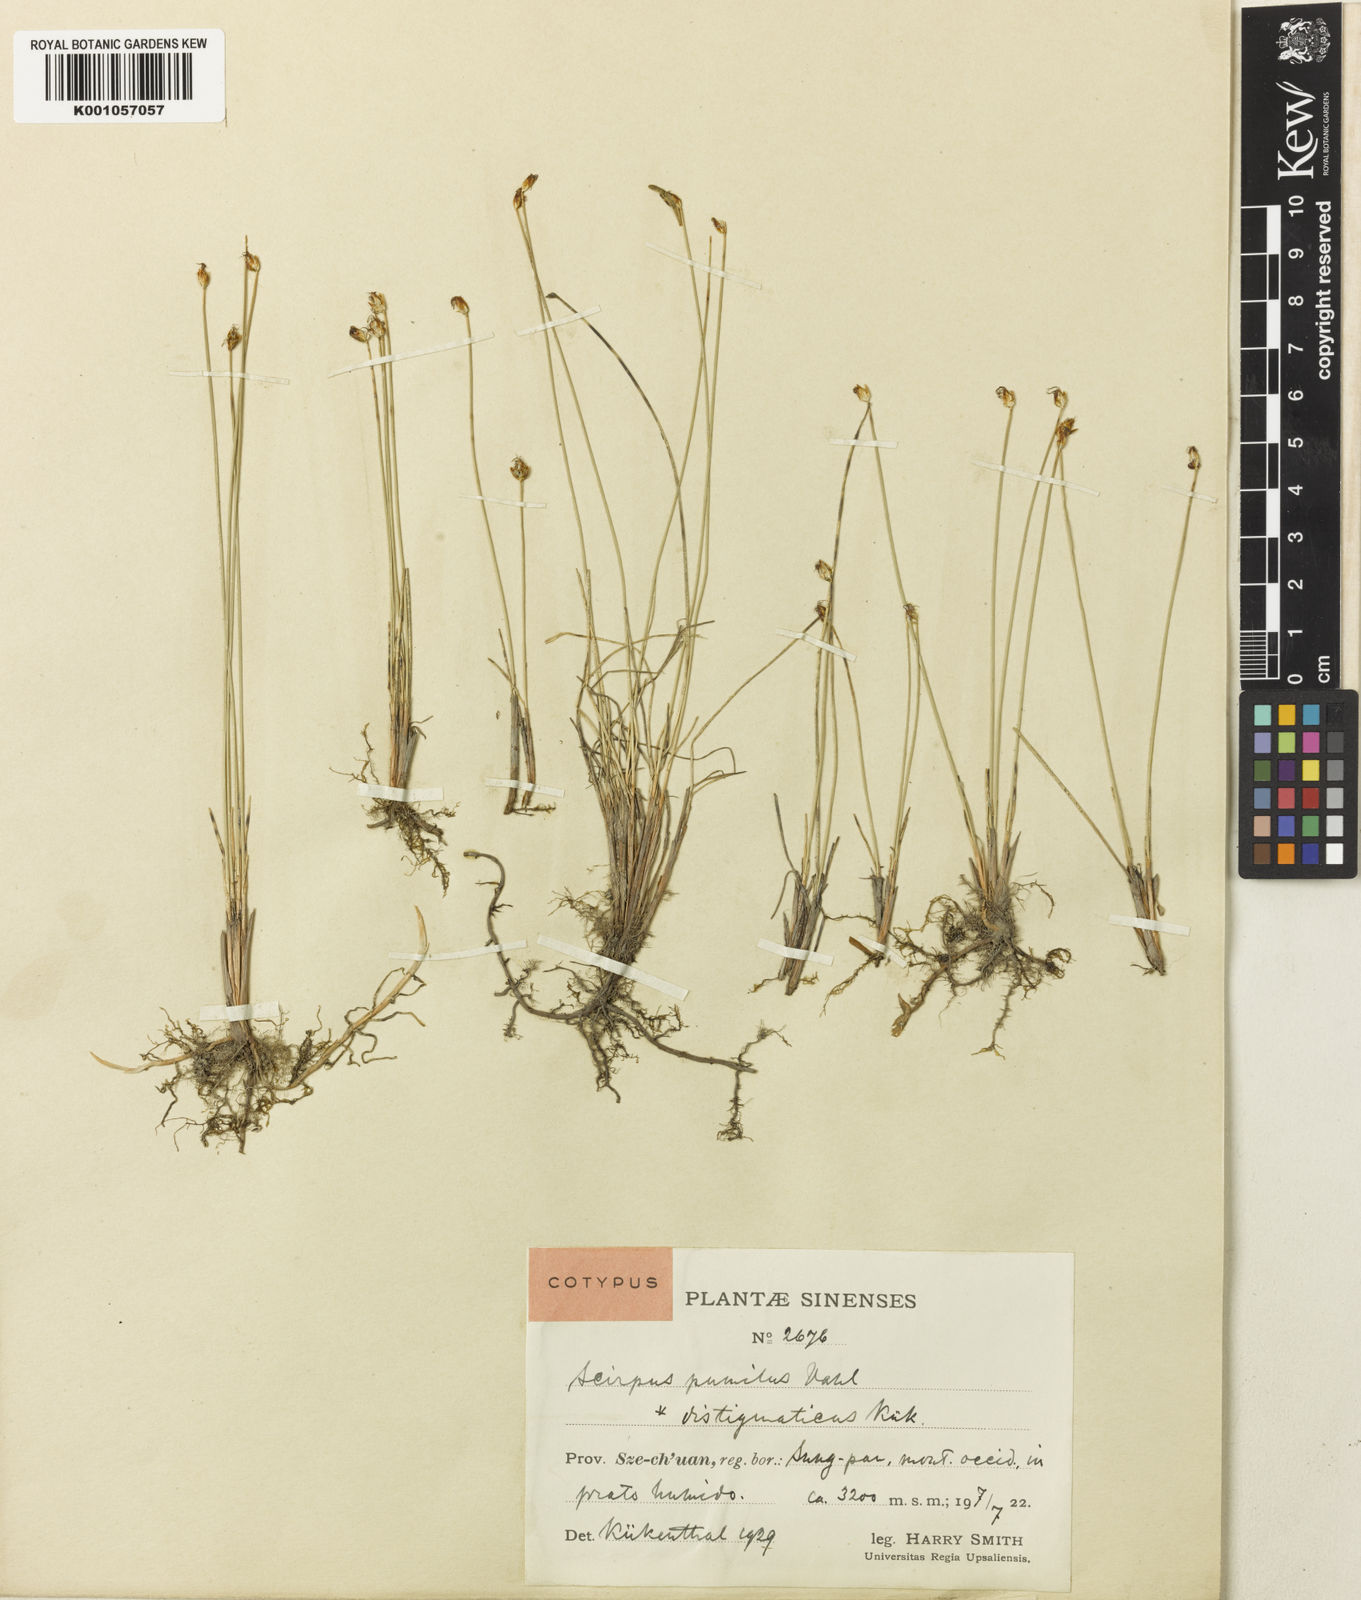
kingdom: Plantae
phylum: Tracheophyta
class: Liliopsida
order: Poales
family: Cyperaceae
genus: Trichophorum
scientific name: Trichophorum pumilum
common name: Rolland's bulrush
